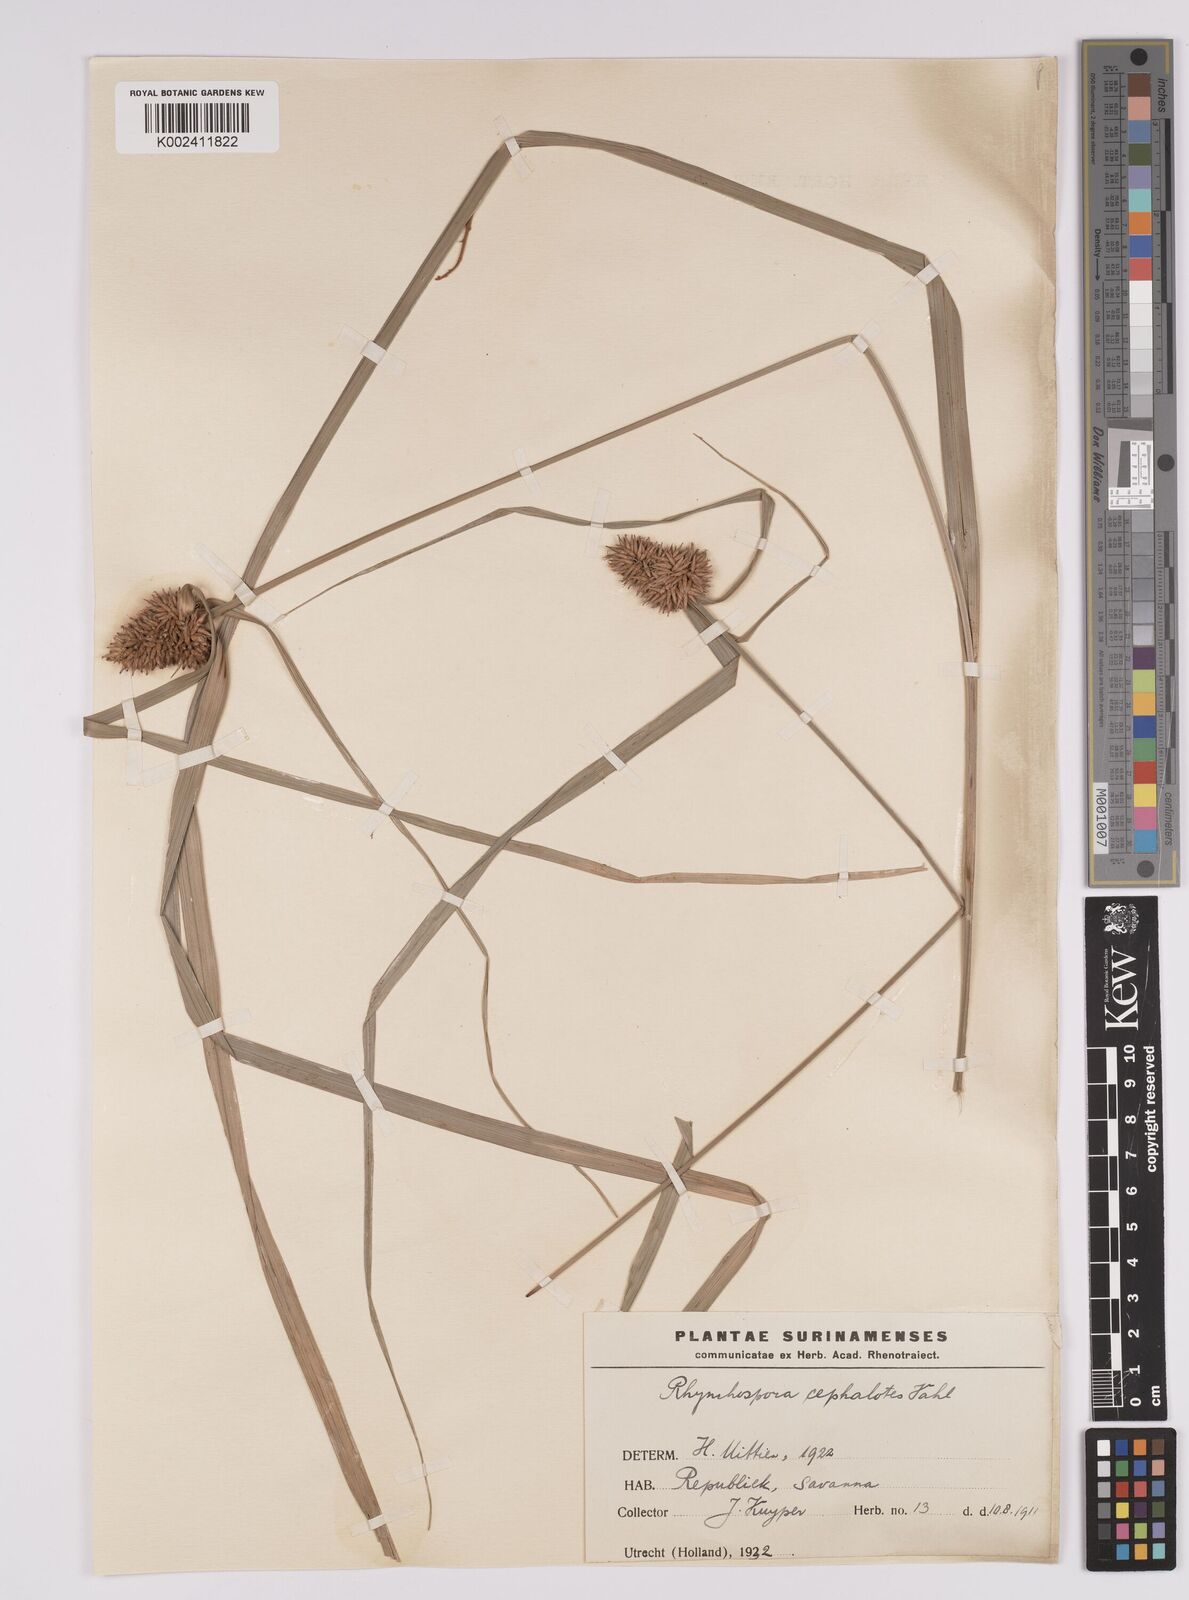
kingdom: Plantae
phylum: Tracheophyta
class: Liliopsida
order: Poales
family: Cyperaceae
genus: Rhynchospora
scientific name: Rhynchospora cephalotes
